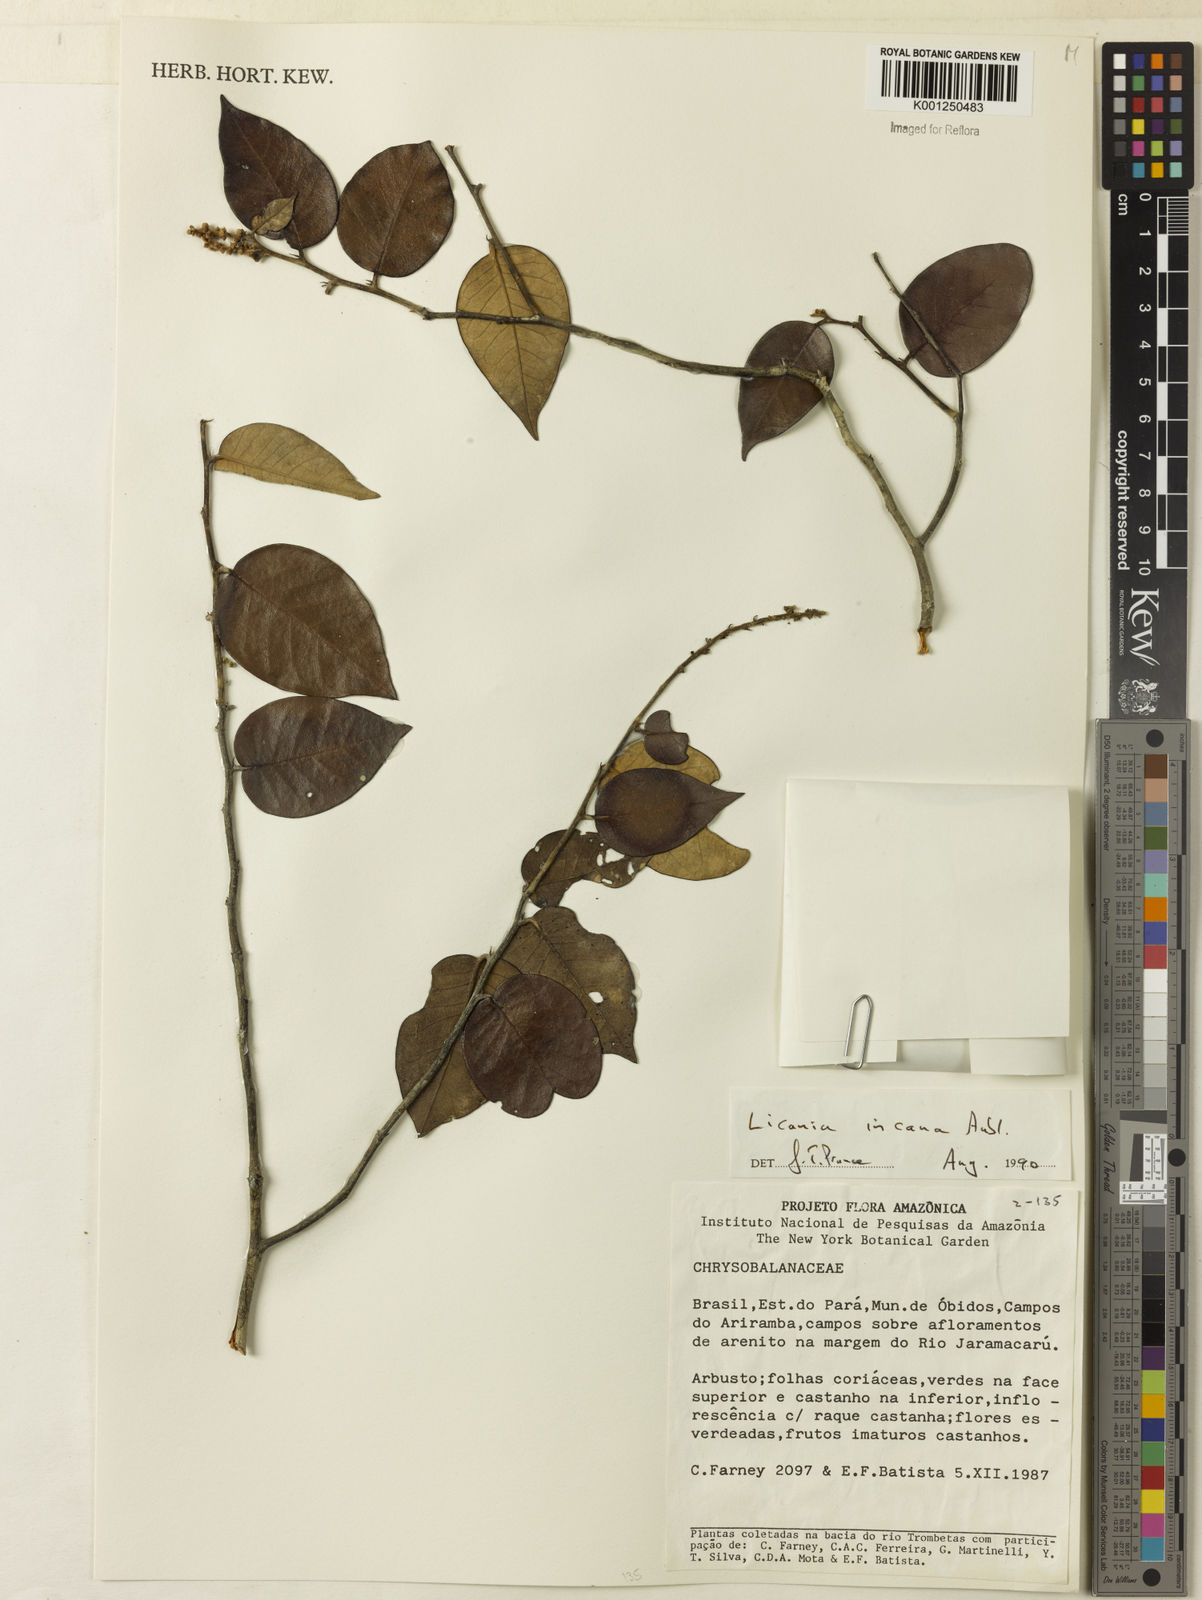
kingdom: Plantae
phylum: Tracheophyta
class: Magnoliopsida
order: Malpighiales
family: Chrysobalanaceae
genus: Licania
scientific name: Licania incana
